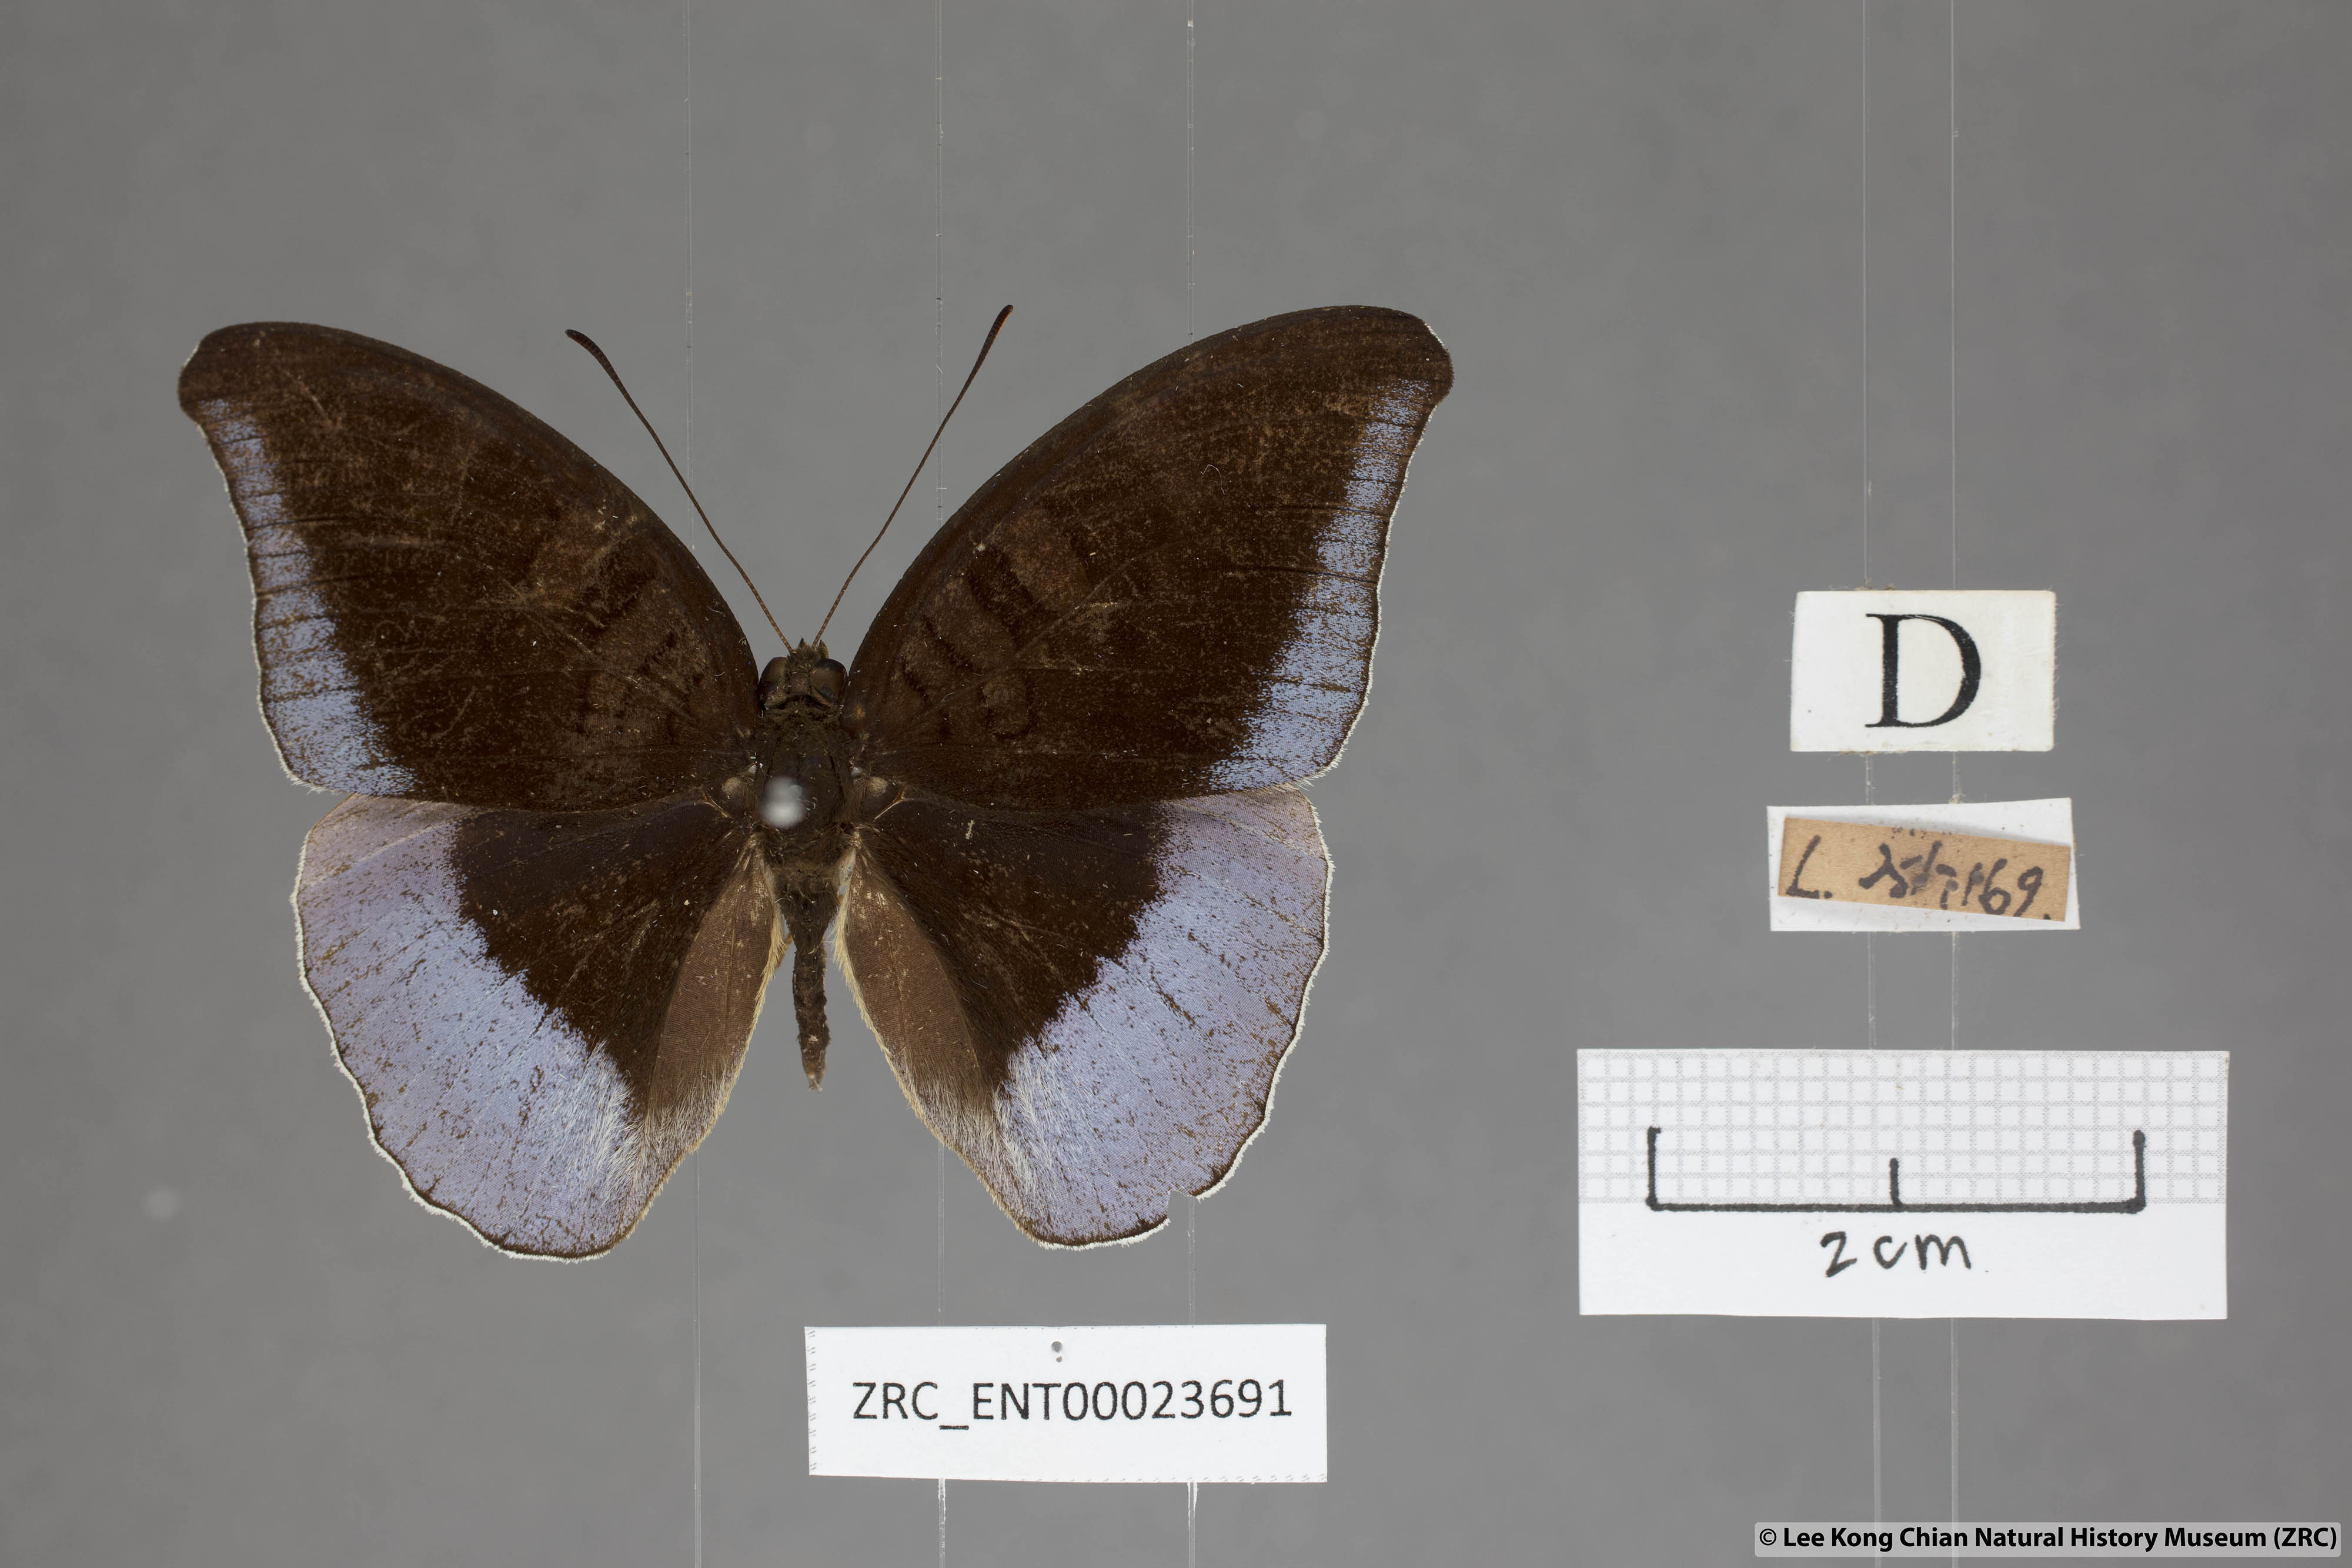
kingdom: Animalia
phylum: Arthropoda
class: Insecta
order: Lepidoptera
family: Nymphalidae
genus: Tanaecia
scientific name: Tanaecia flora
